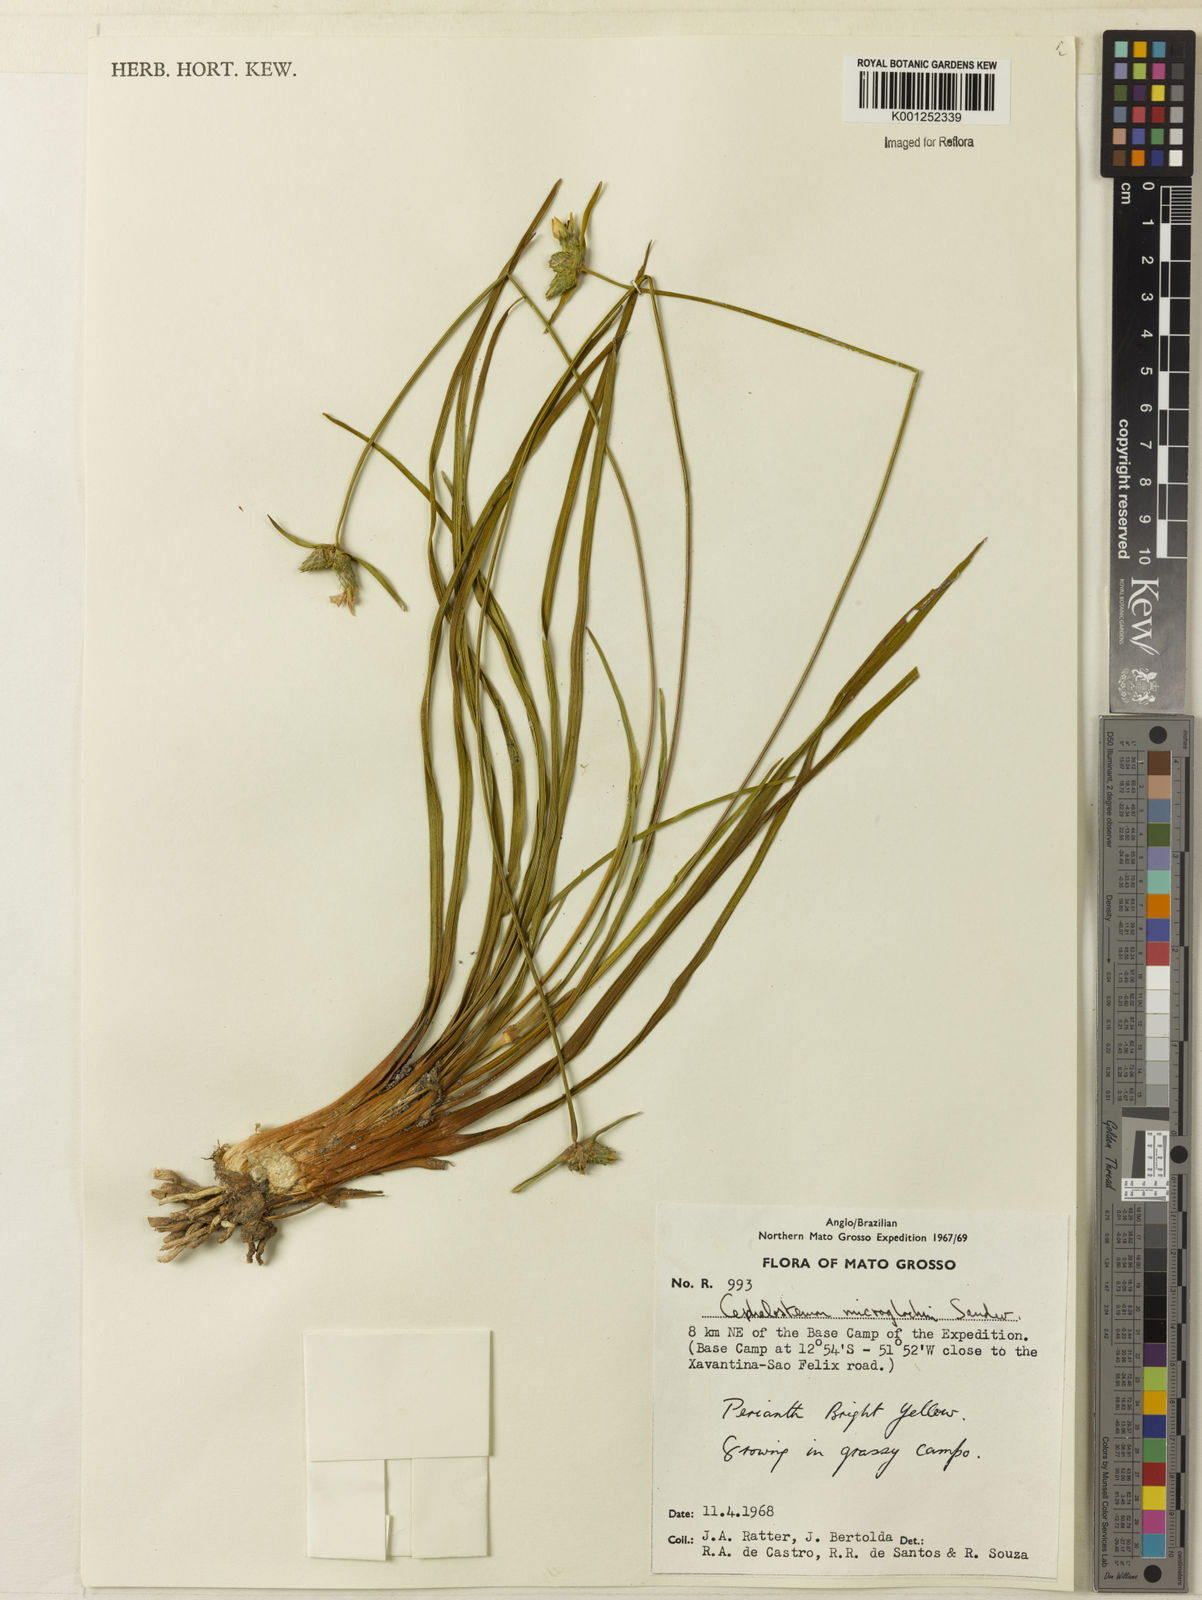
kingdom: Plantae
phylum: Tracheophyta
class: Liliopsida
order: Poales
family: Rapateaceae
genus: Cephalostemon
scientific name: Cephalostemon microglochin
